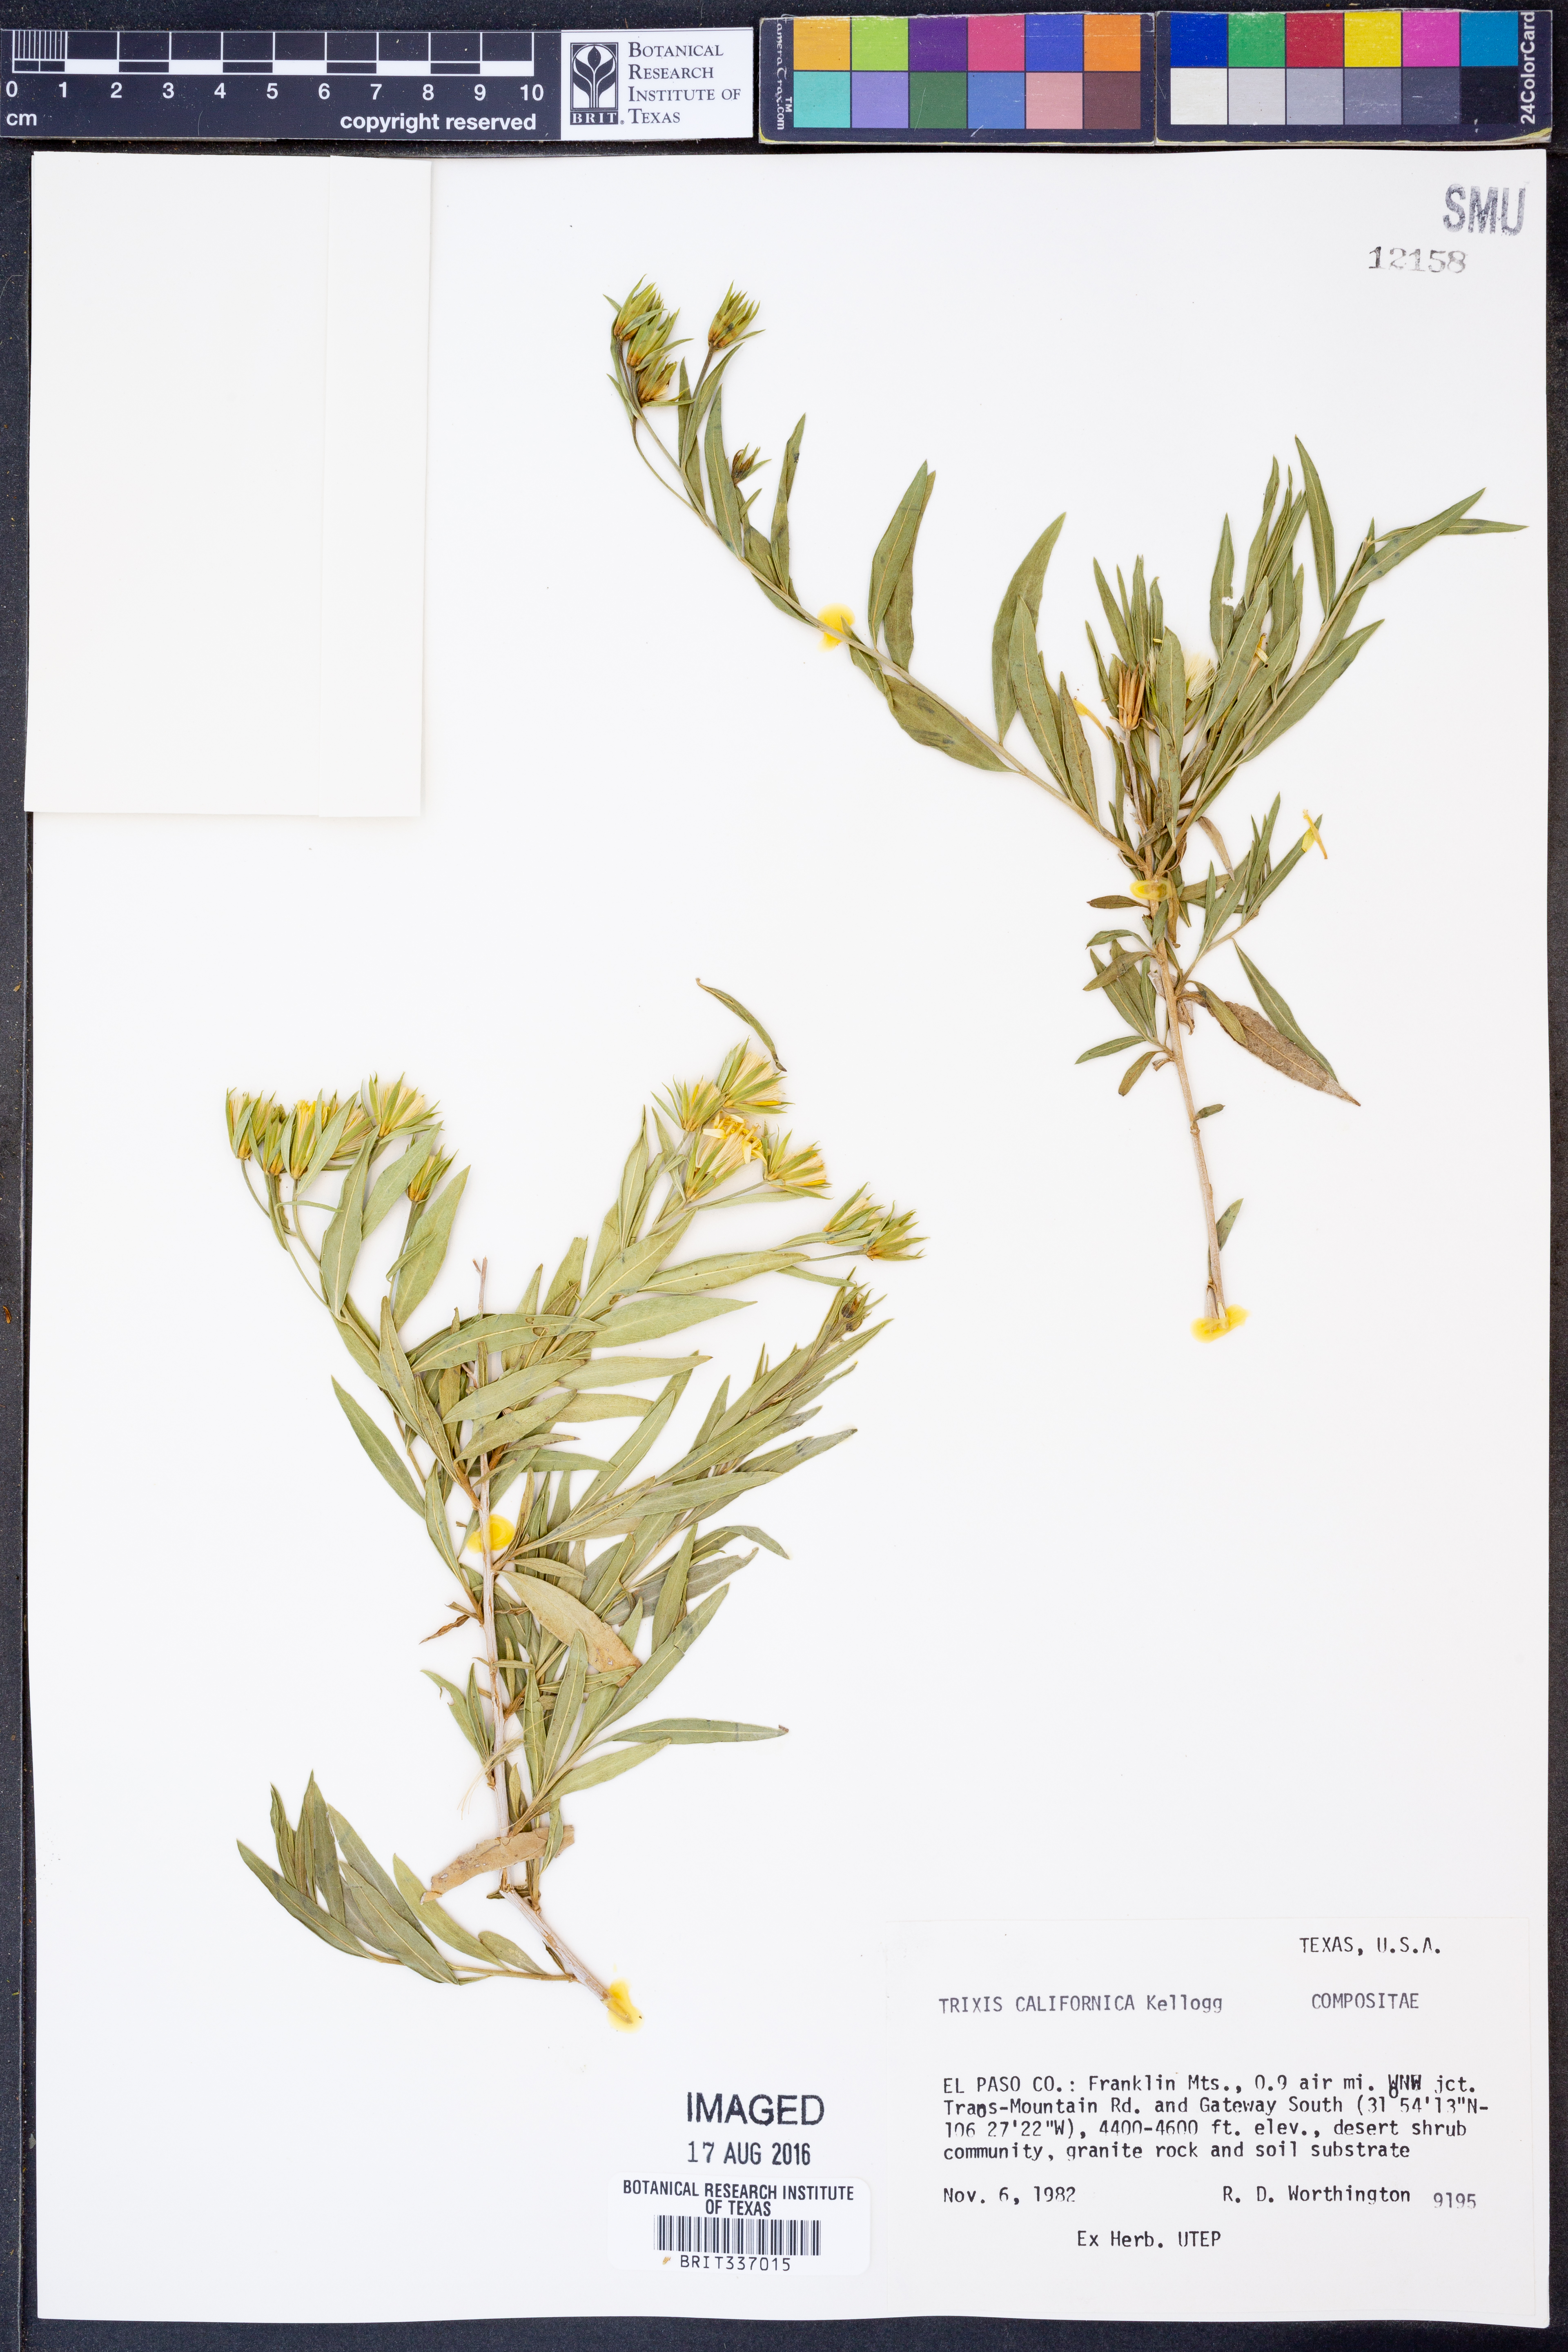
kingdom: Plantae
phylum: Tracheophyta
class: Magnoliopsida
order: Asterales
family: Asteraceae
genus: Trixis
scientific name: Trixis californica
